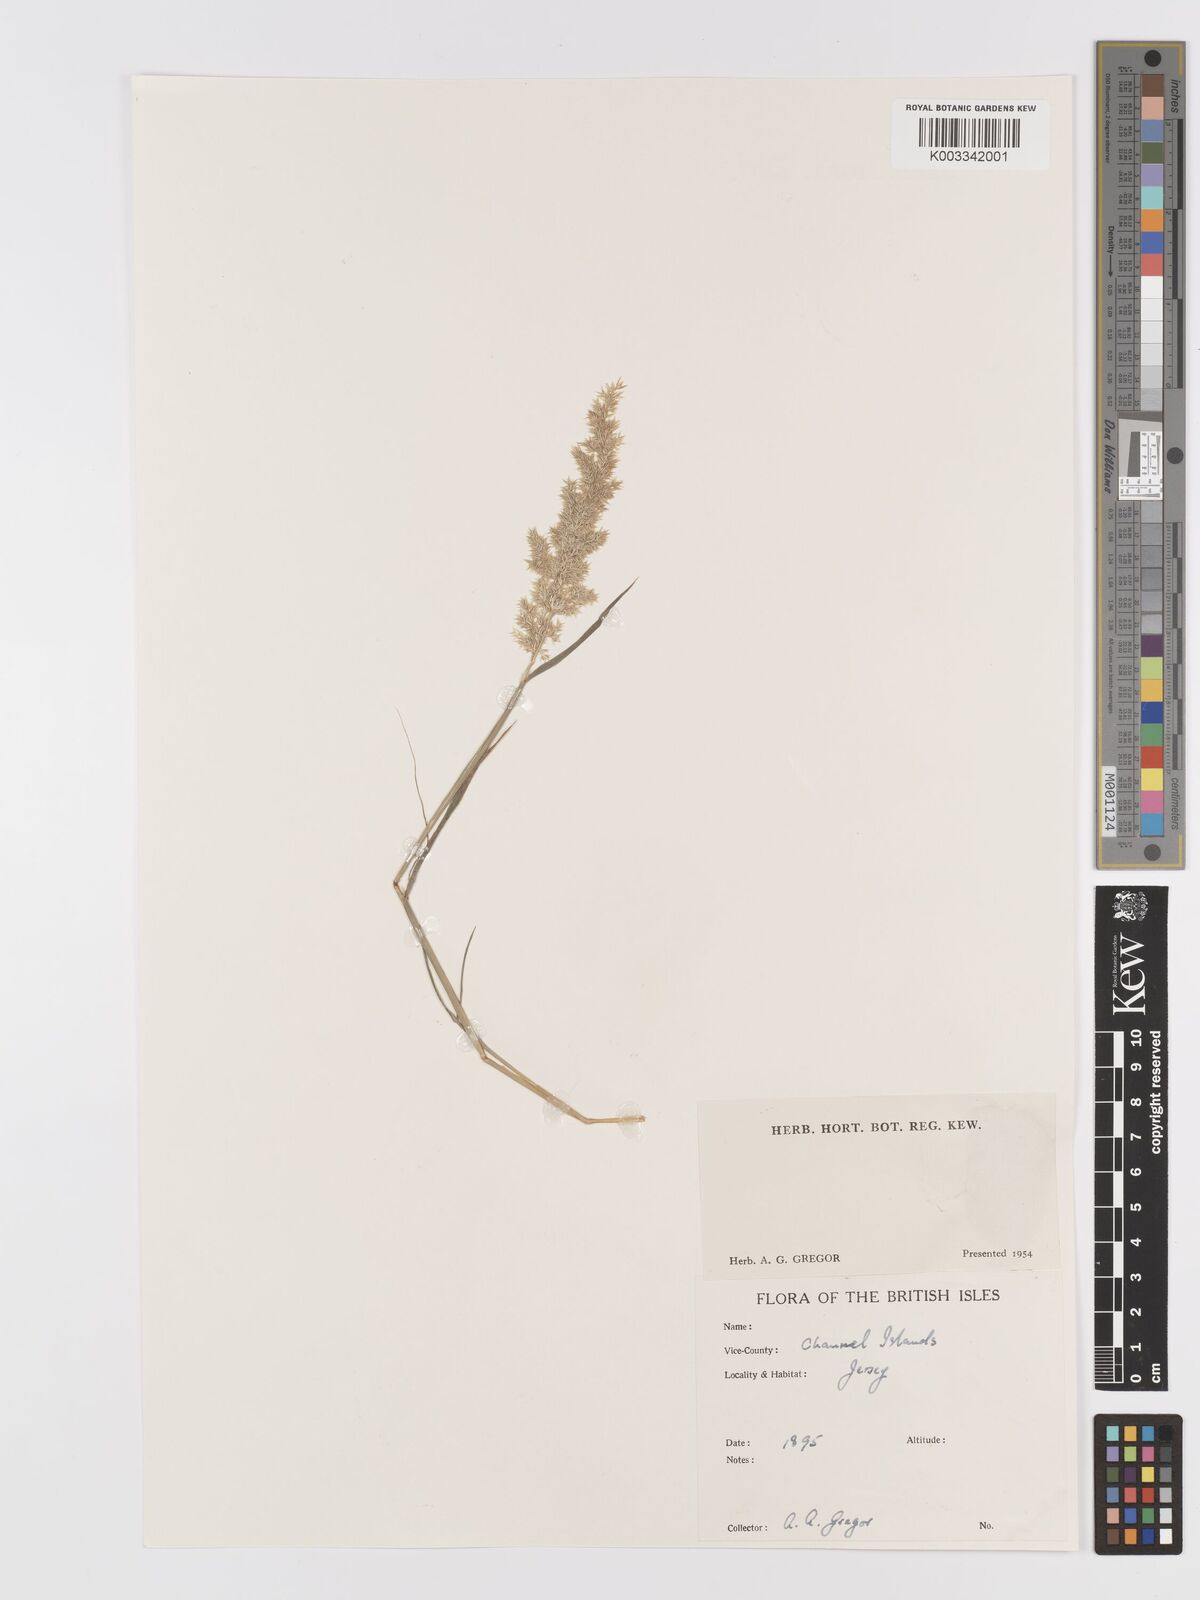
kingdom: Plantae
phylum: Tracheophyta
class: Liliopsida
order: Poales
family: Poaceae
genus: Agrostis
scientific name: Agrostis stolonifera
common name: Creeping bentgrass
